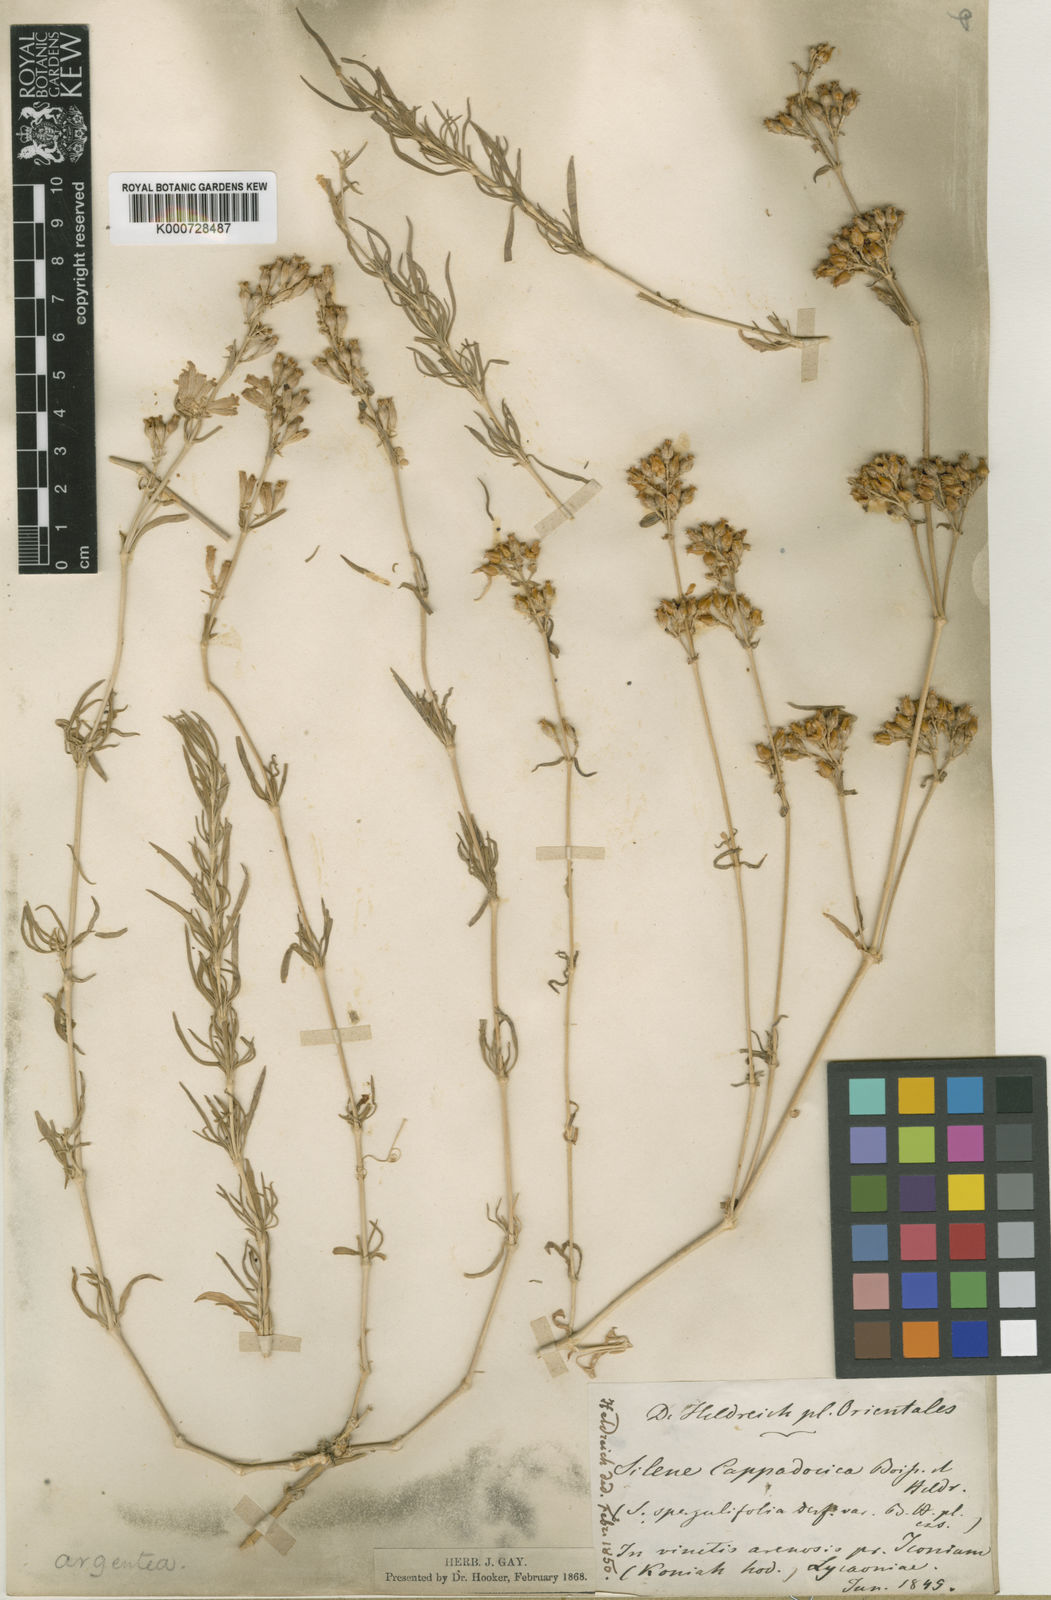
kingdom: Plantae
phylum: Tracheophyta
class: Magnoliopsida
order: Caryophyllales
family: Caryophyllaceae
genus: Silene
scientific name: Silene cappadocica
